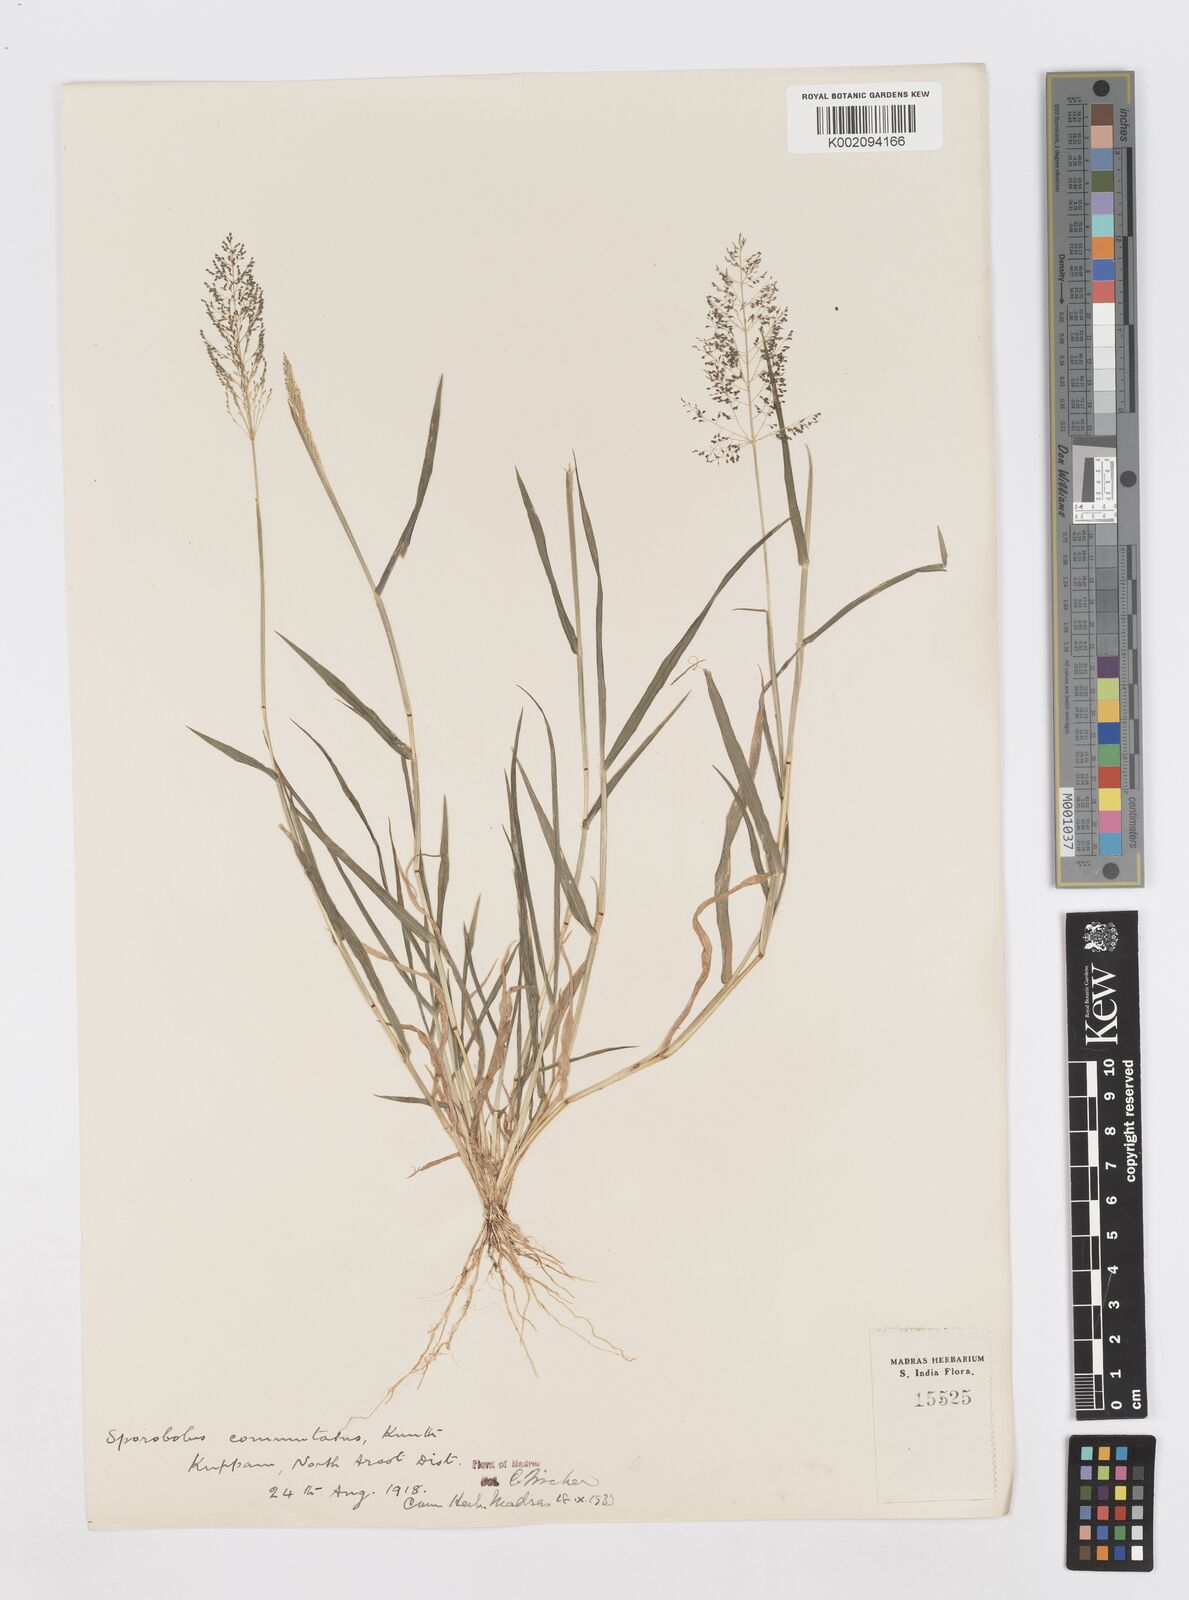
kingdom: Plantae
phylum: Tracheophyta
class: Liliopsida
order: Poales
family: Poaceae
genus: Sporobolus
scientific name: Sporobolus coromandelianus
